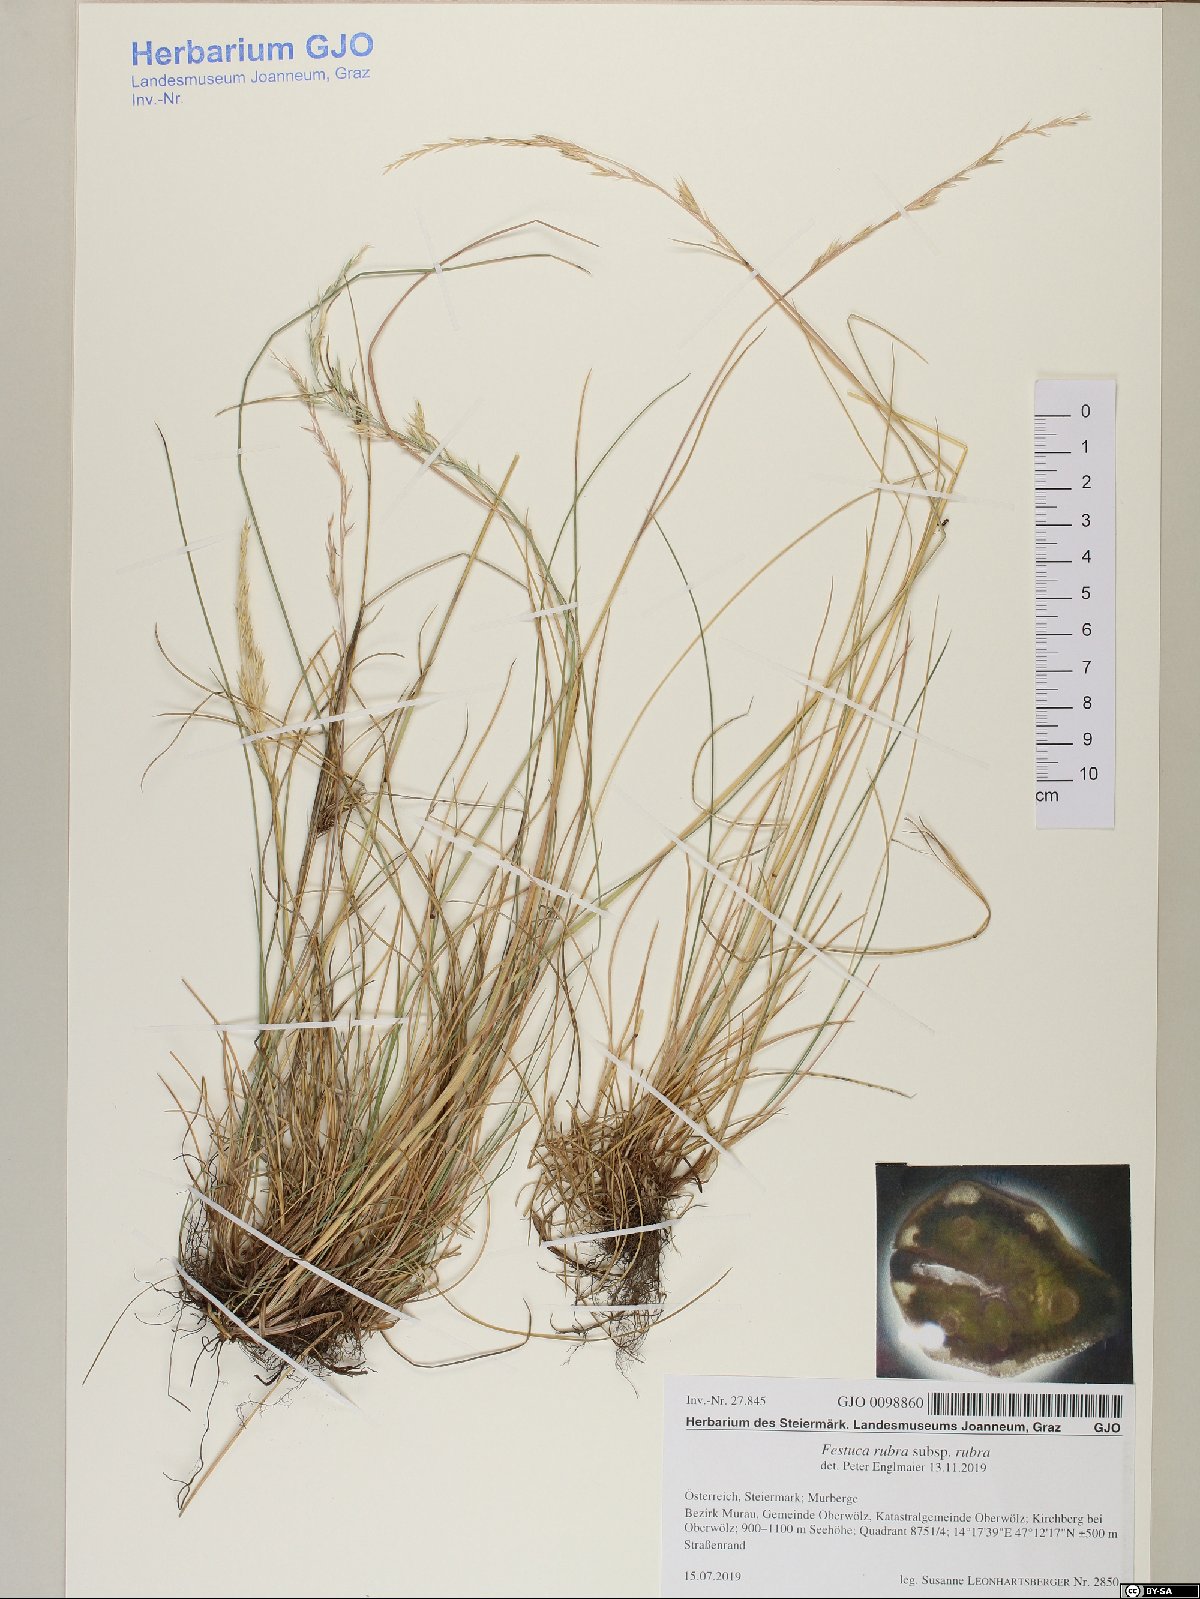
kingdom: Plantae
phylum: Tracheophyta
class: Liliopsida
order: Poales
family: Poaceae
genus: Festuca
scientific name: Festuca rubra
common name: Red fescue
